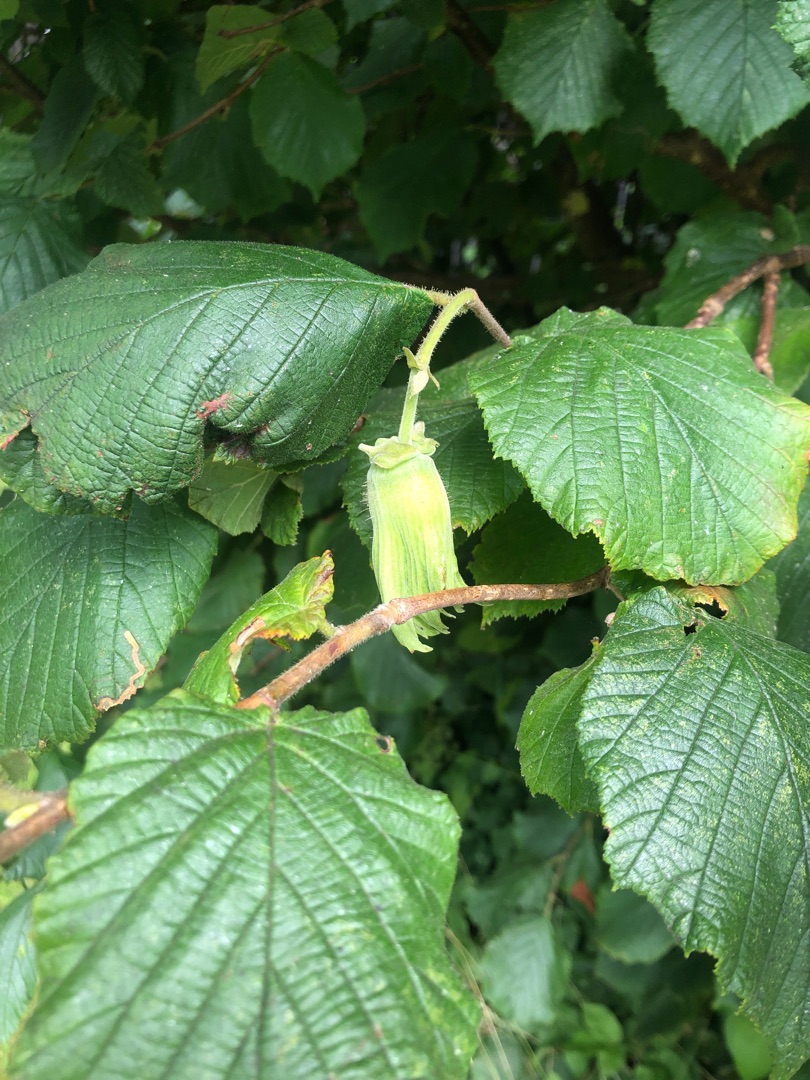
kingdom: Plantae
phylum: Tracheophyta
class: Magnoliopsida
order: Fagales
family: Betulaceae
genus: Corylus
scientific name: Corylus avellana
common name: Hassel
